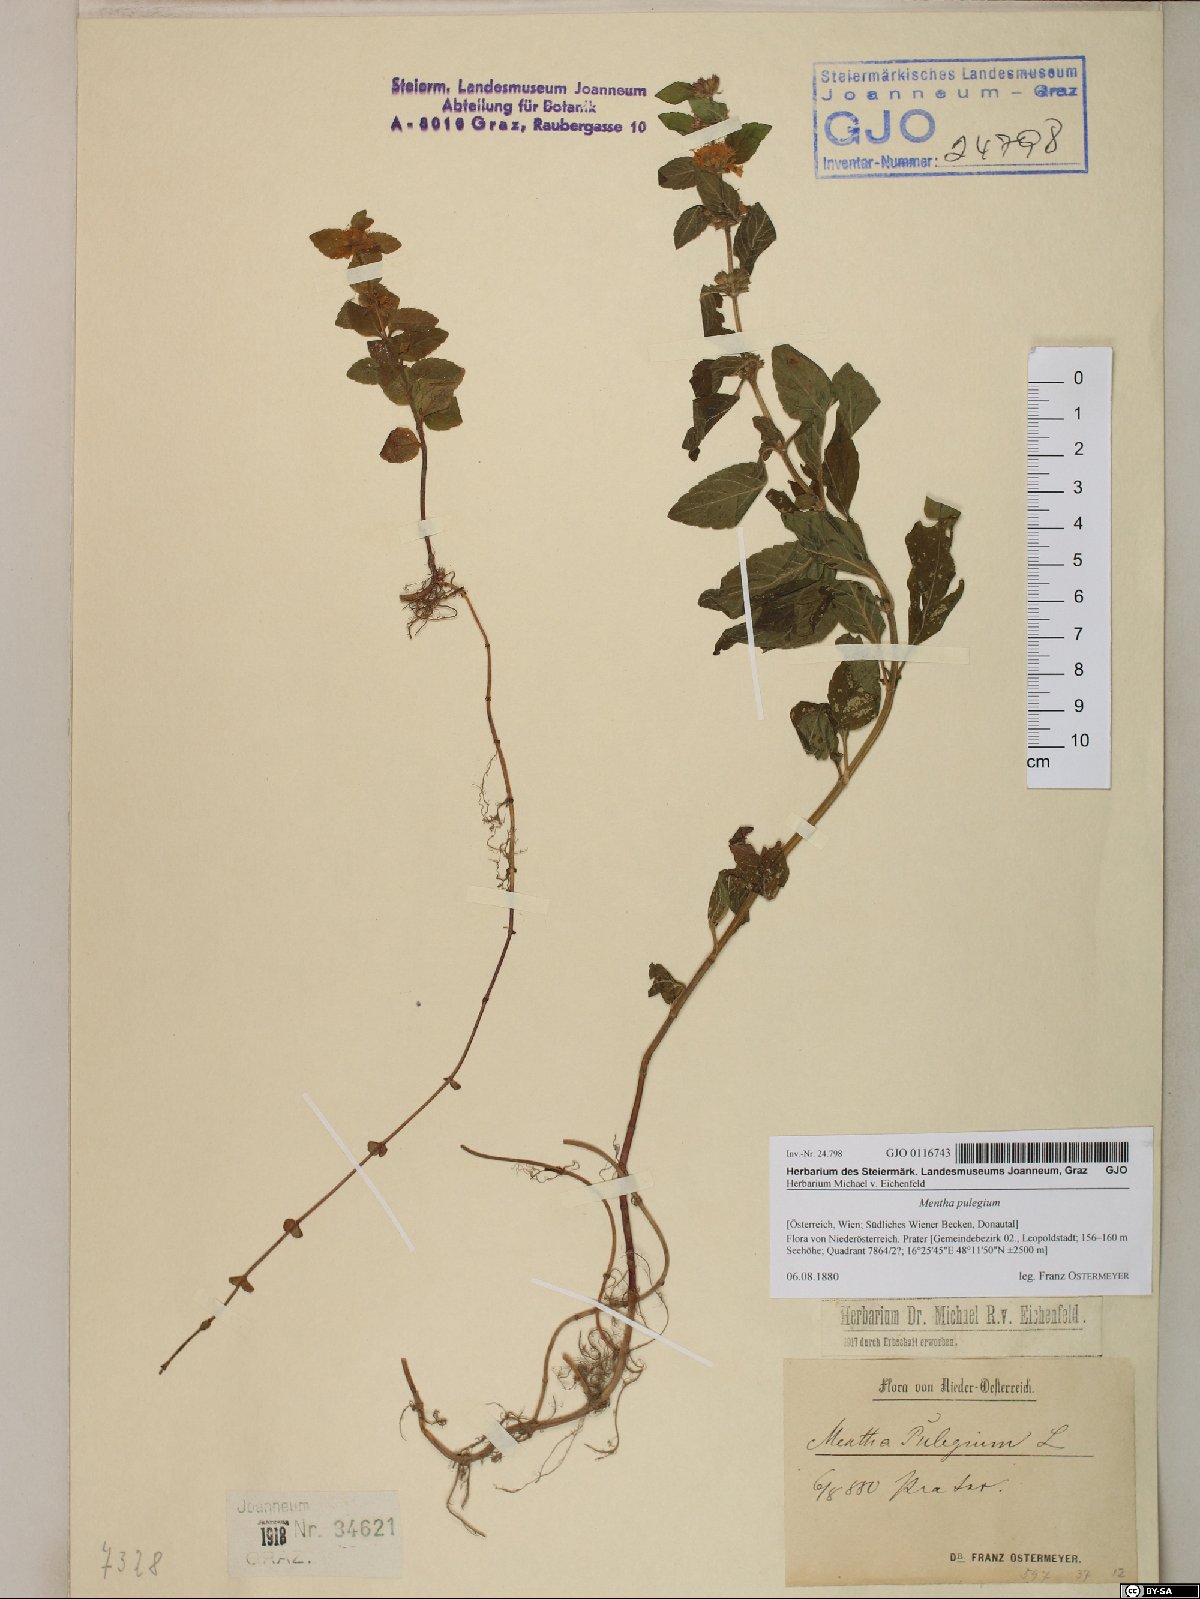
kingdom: Plantae
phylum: Tracheophyta
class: Magnoliopsida
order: Lamiales
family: Lamiaceae
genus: Mentha
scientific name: Mentha pulegium
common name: Pennyroyal
